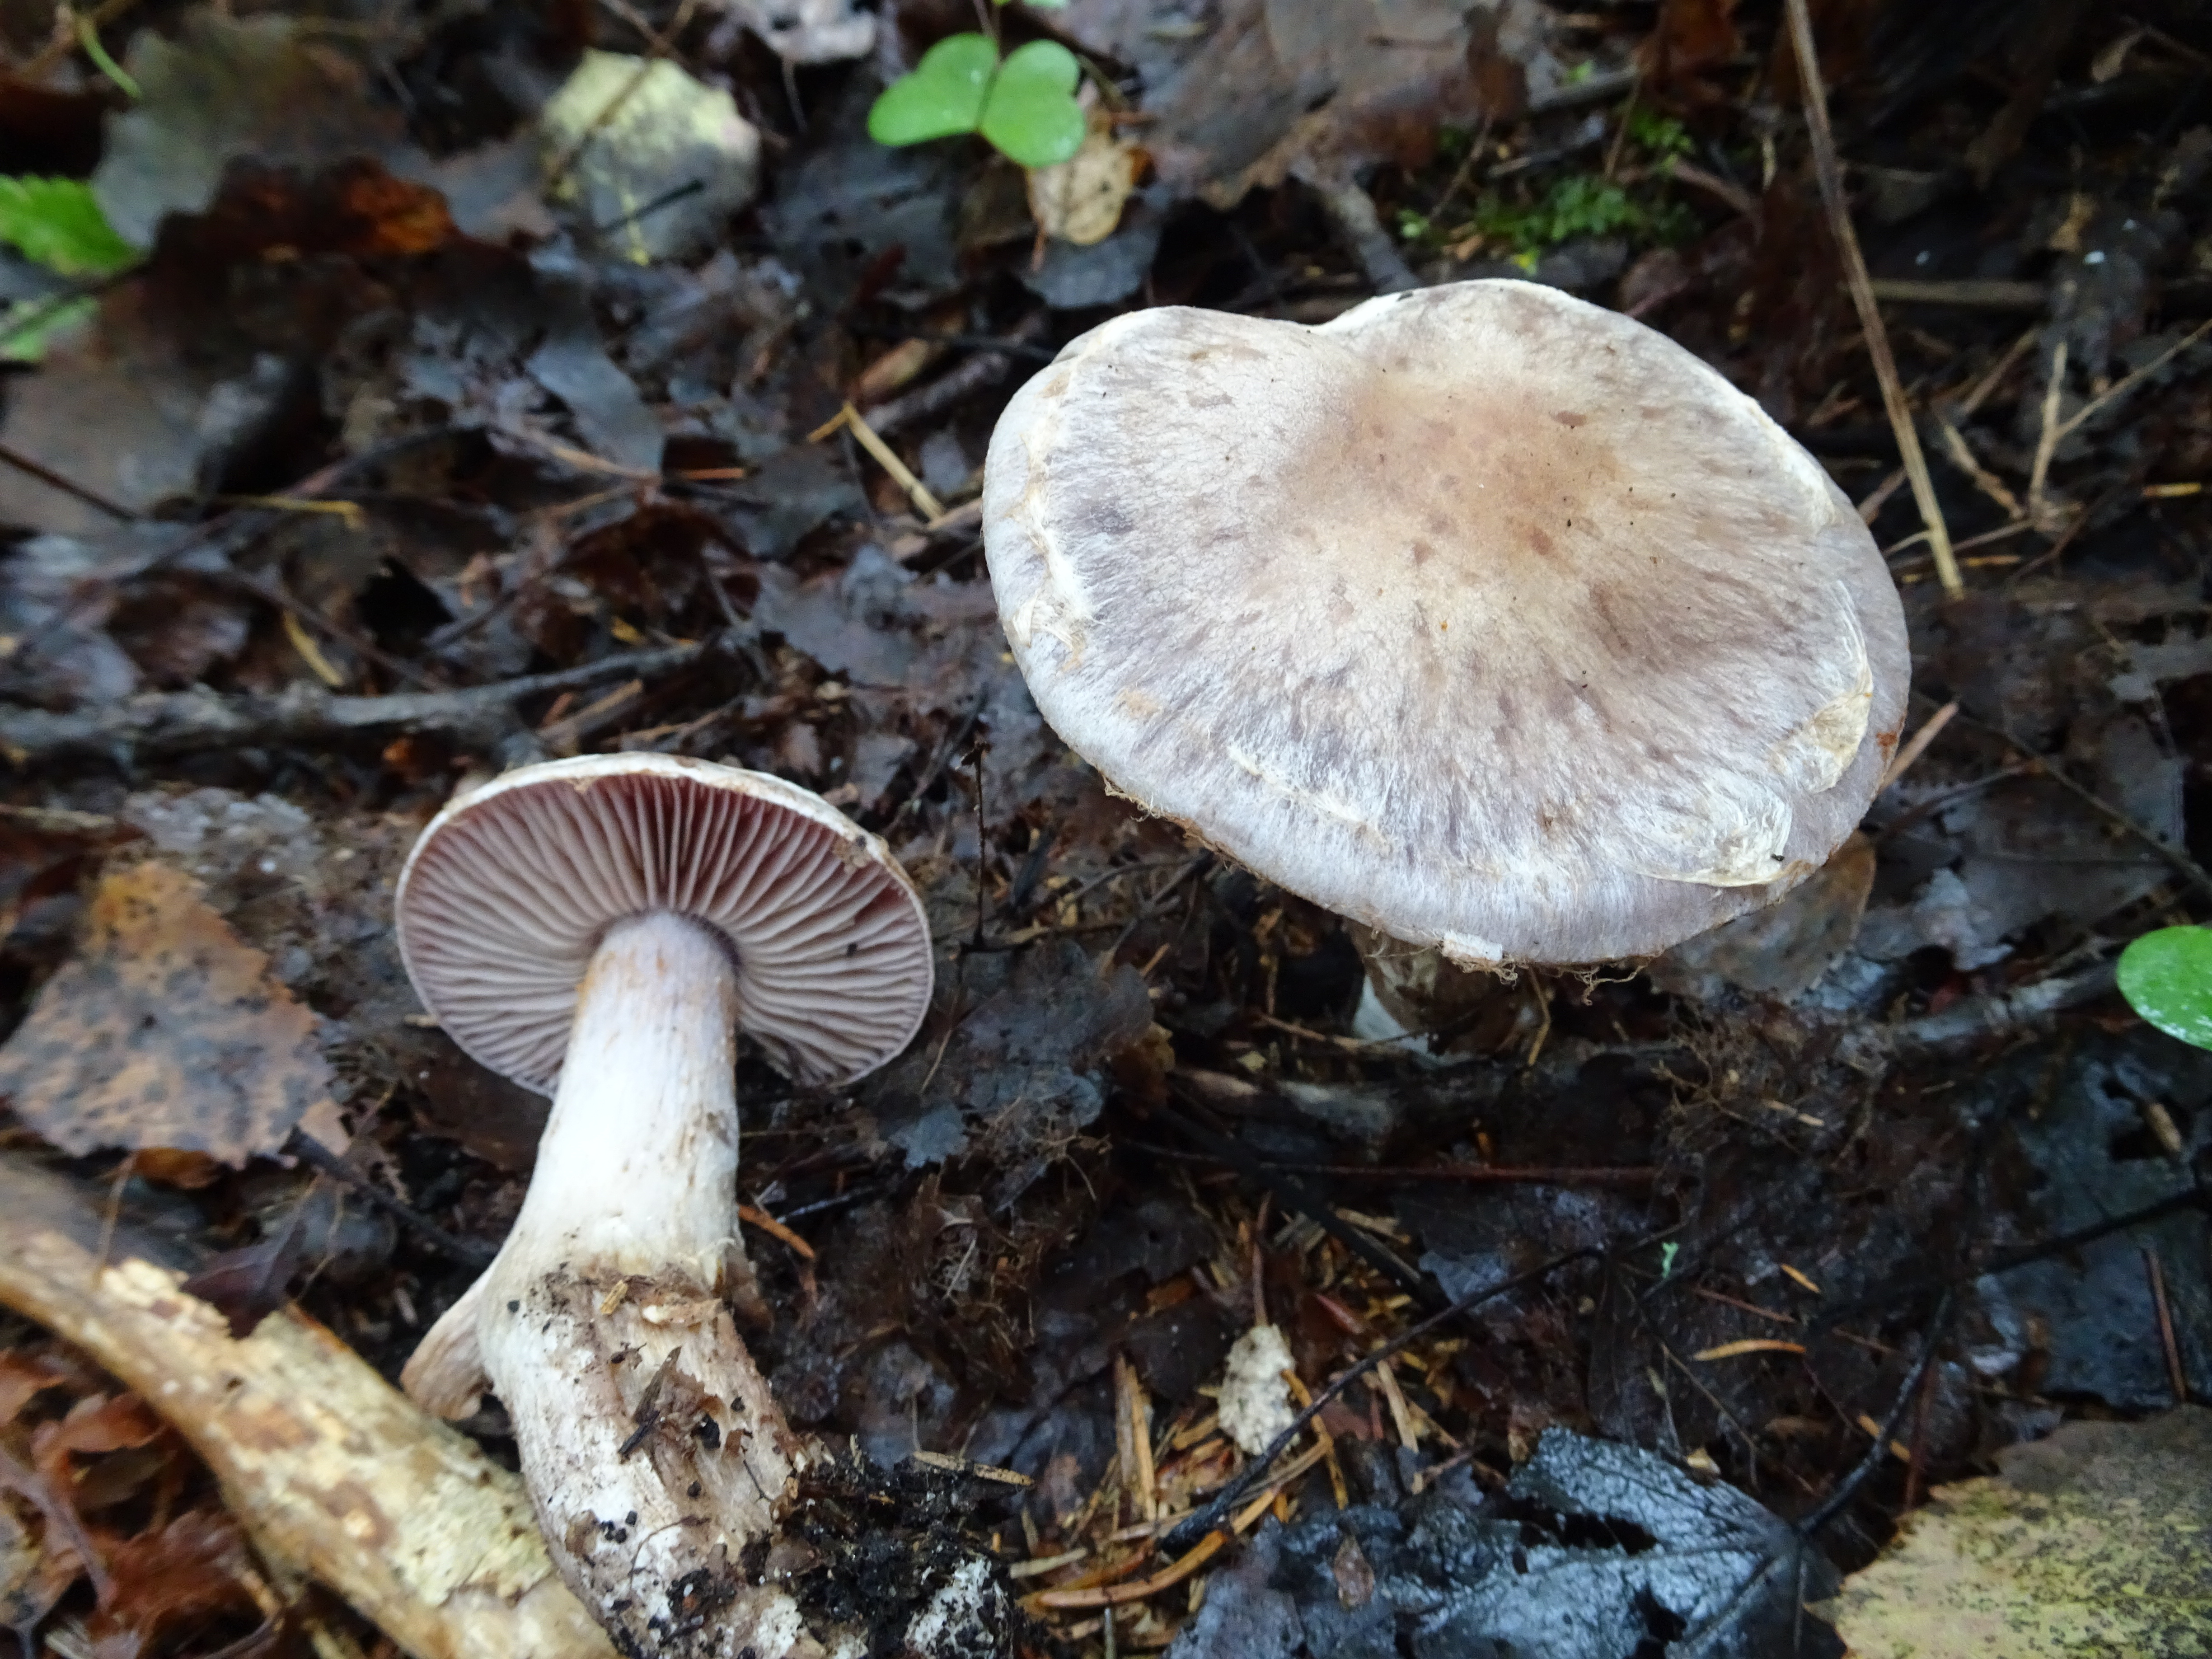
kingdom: Fungi
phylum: Basidiomycota
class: Agaricomycetes
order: Agaricales
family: Cortinariaceae
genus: Cortinarius
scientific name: Cortinarius lucorum
